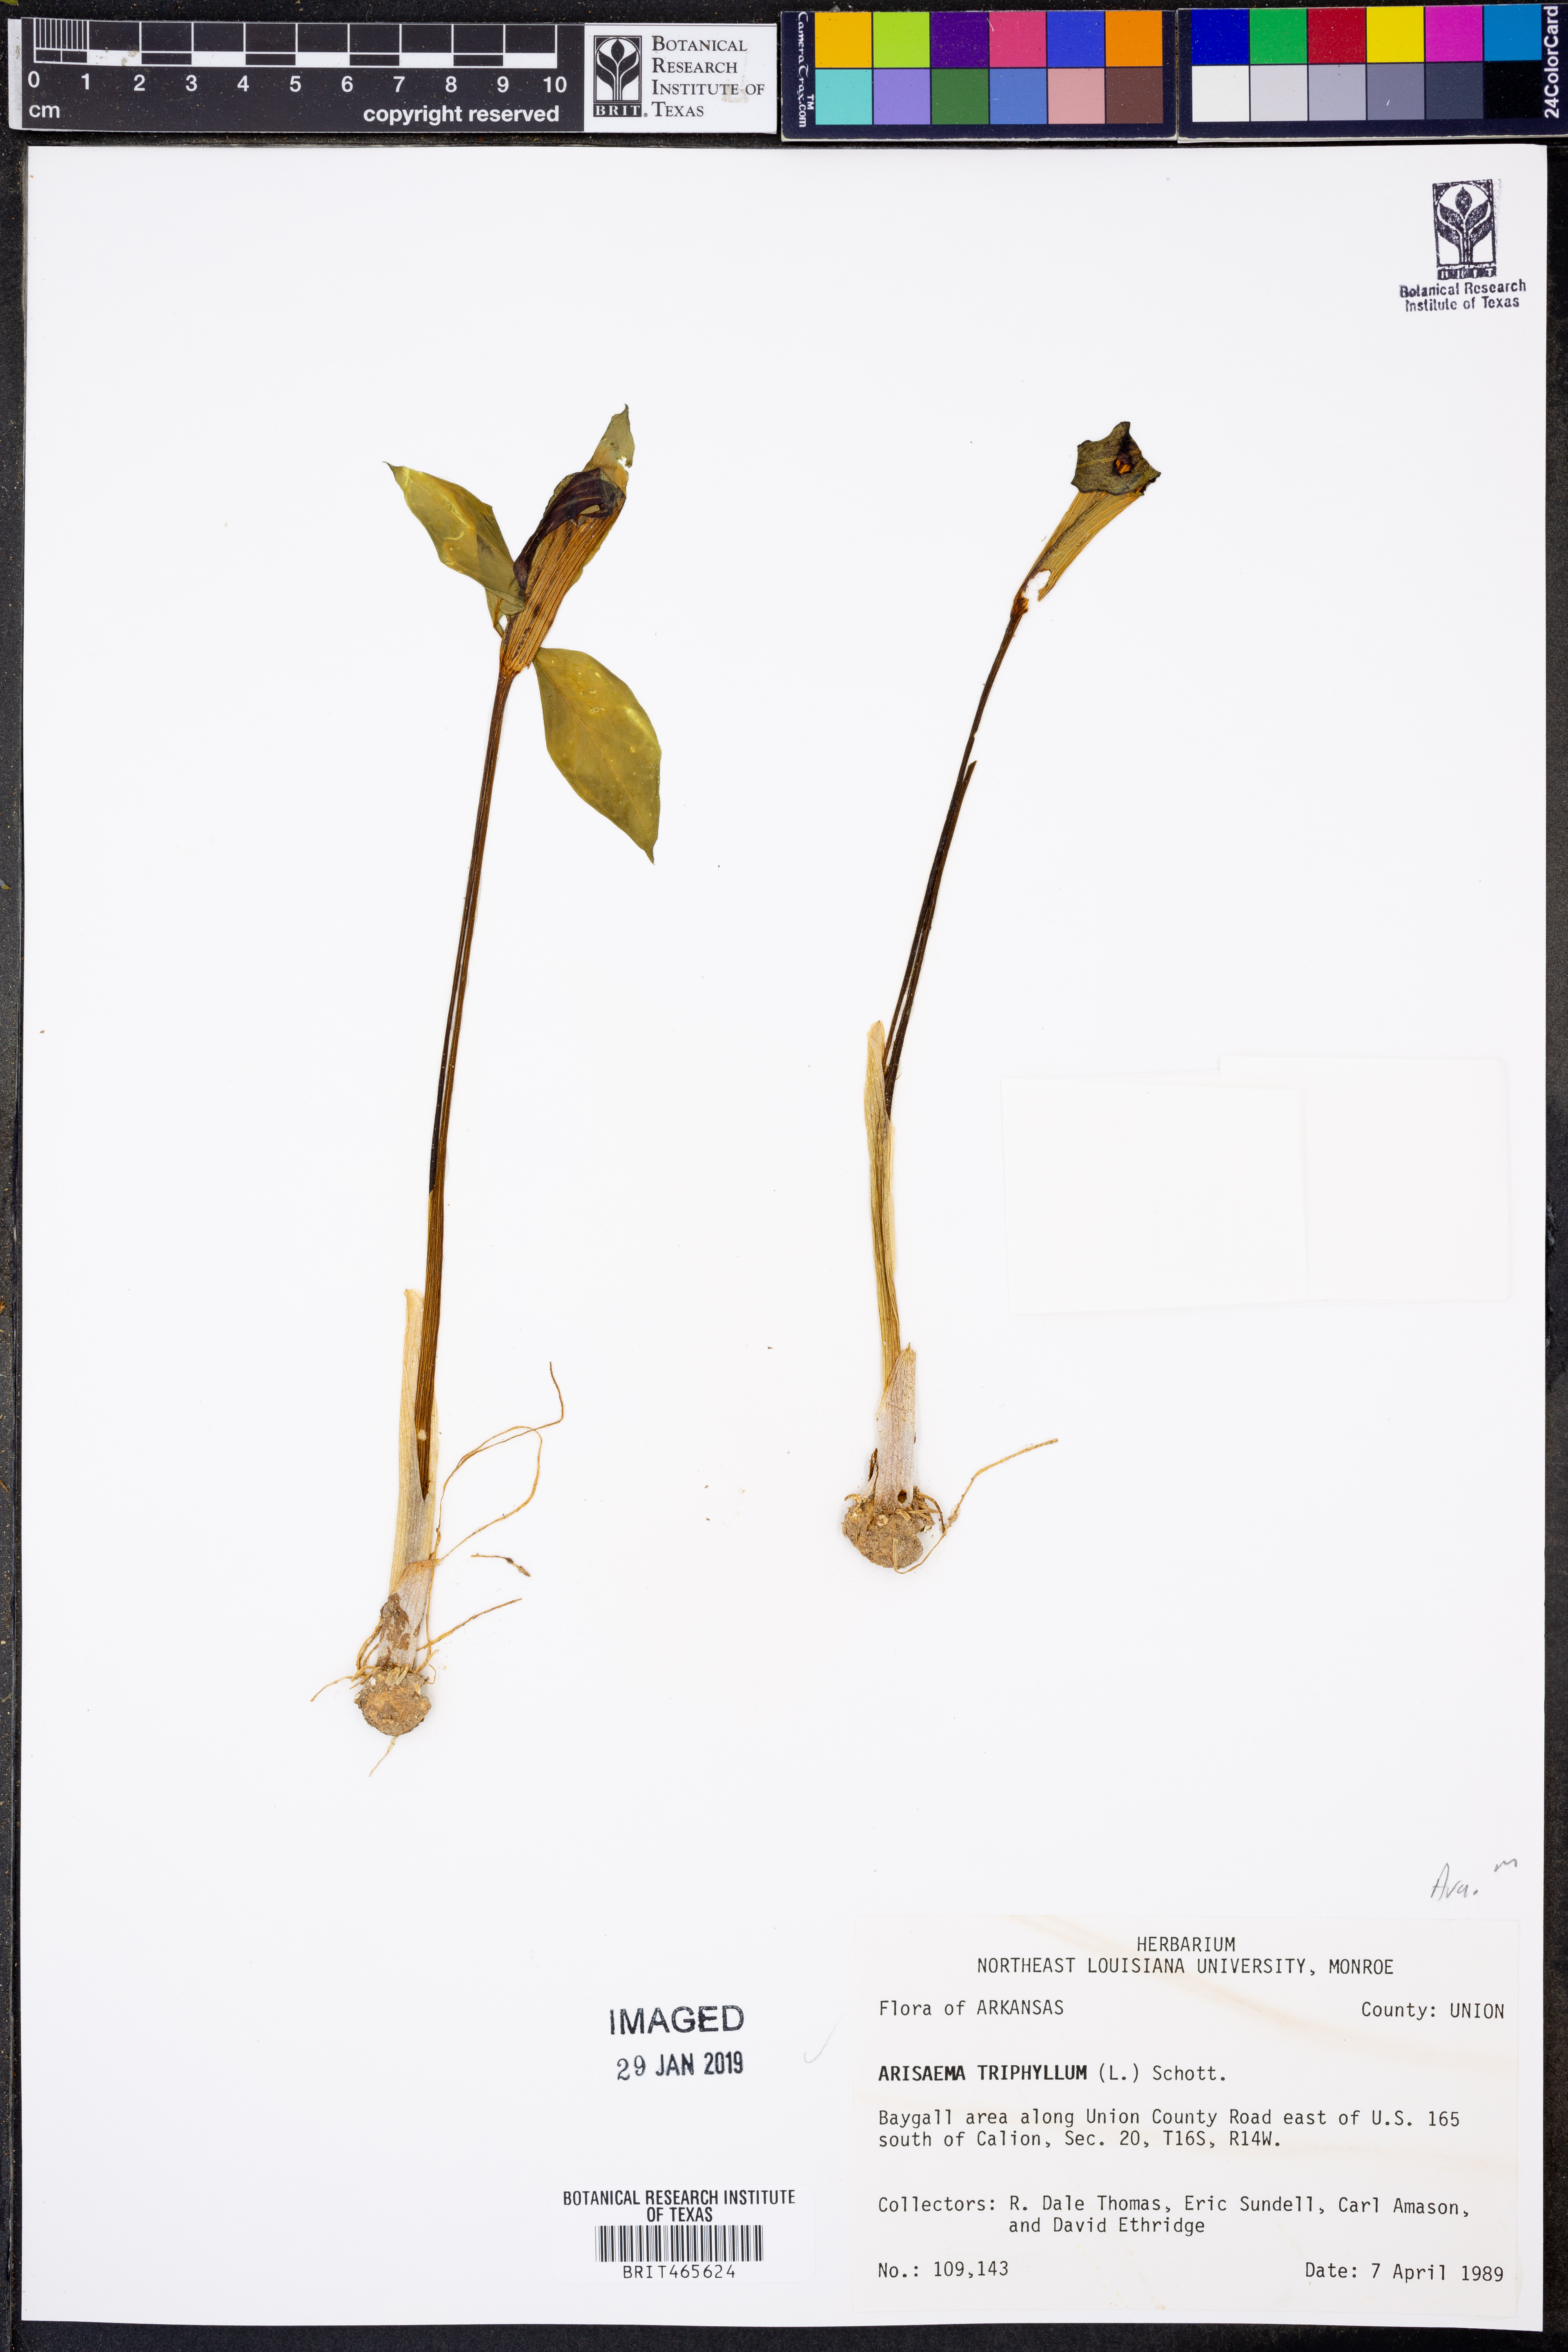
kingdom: Plantae
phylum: Tracheophyta
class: Liliopsida
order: Alismatales
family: Araceae
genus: Arisaema
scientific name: Arisaema triphyllum
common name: Jack-in-the-pulpit
